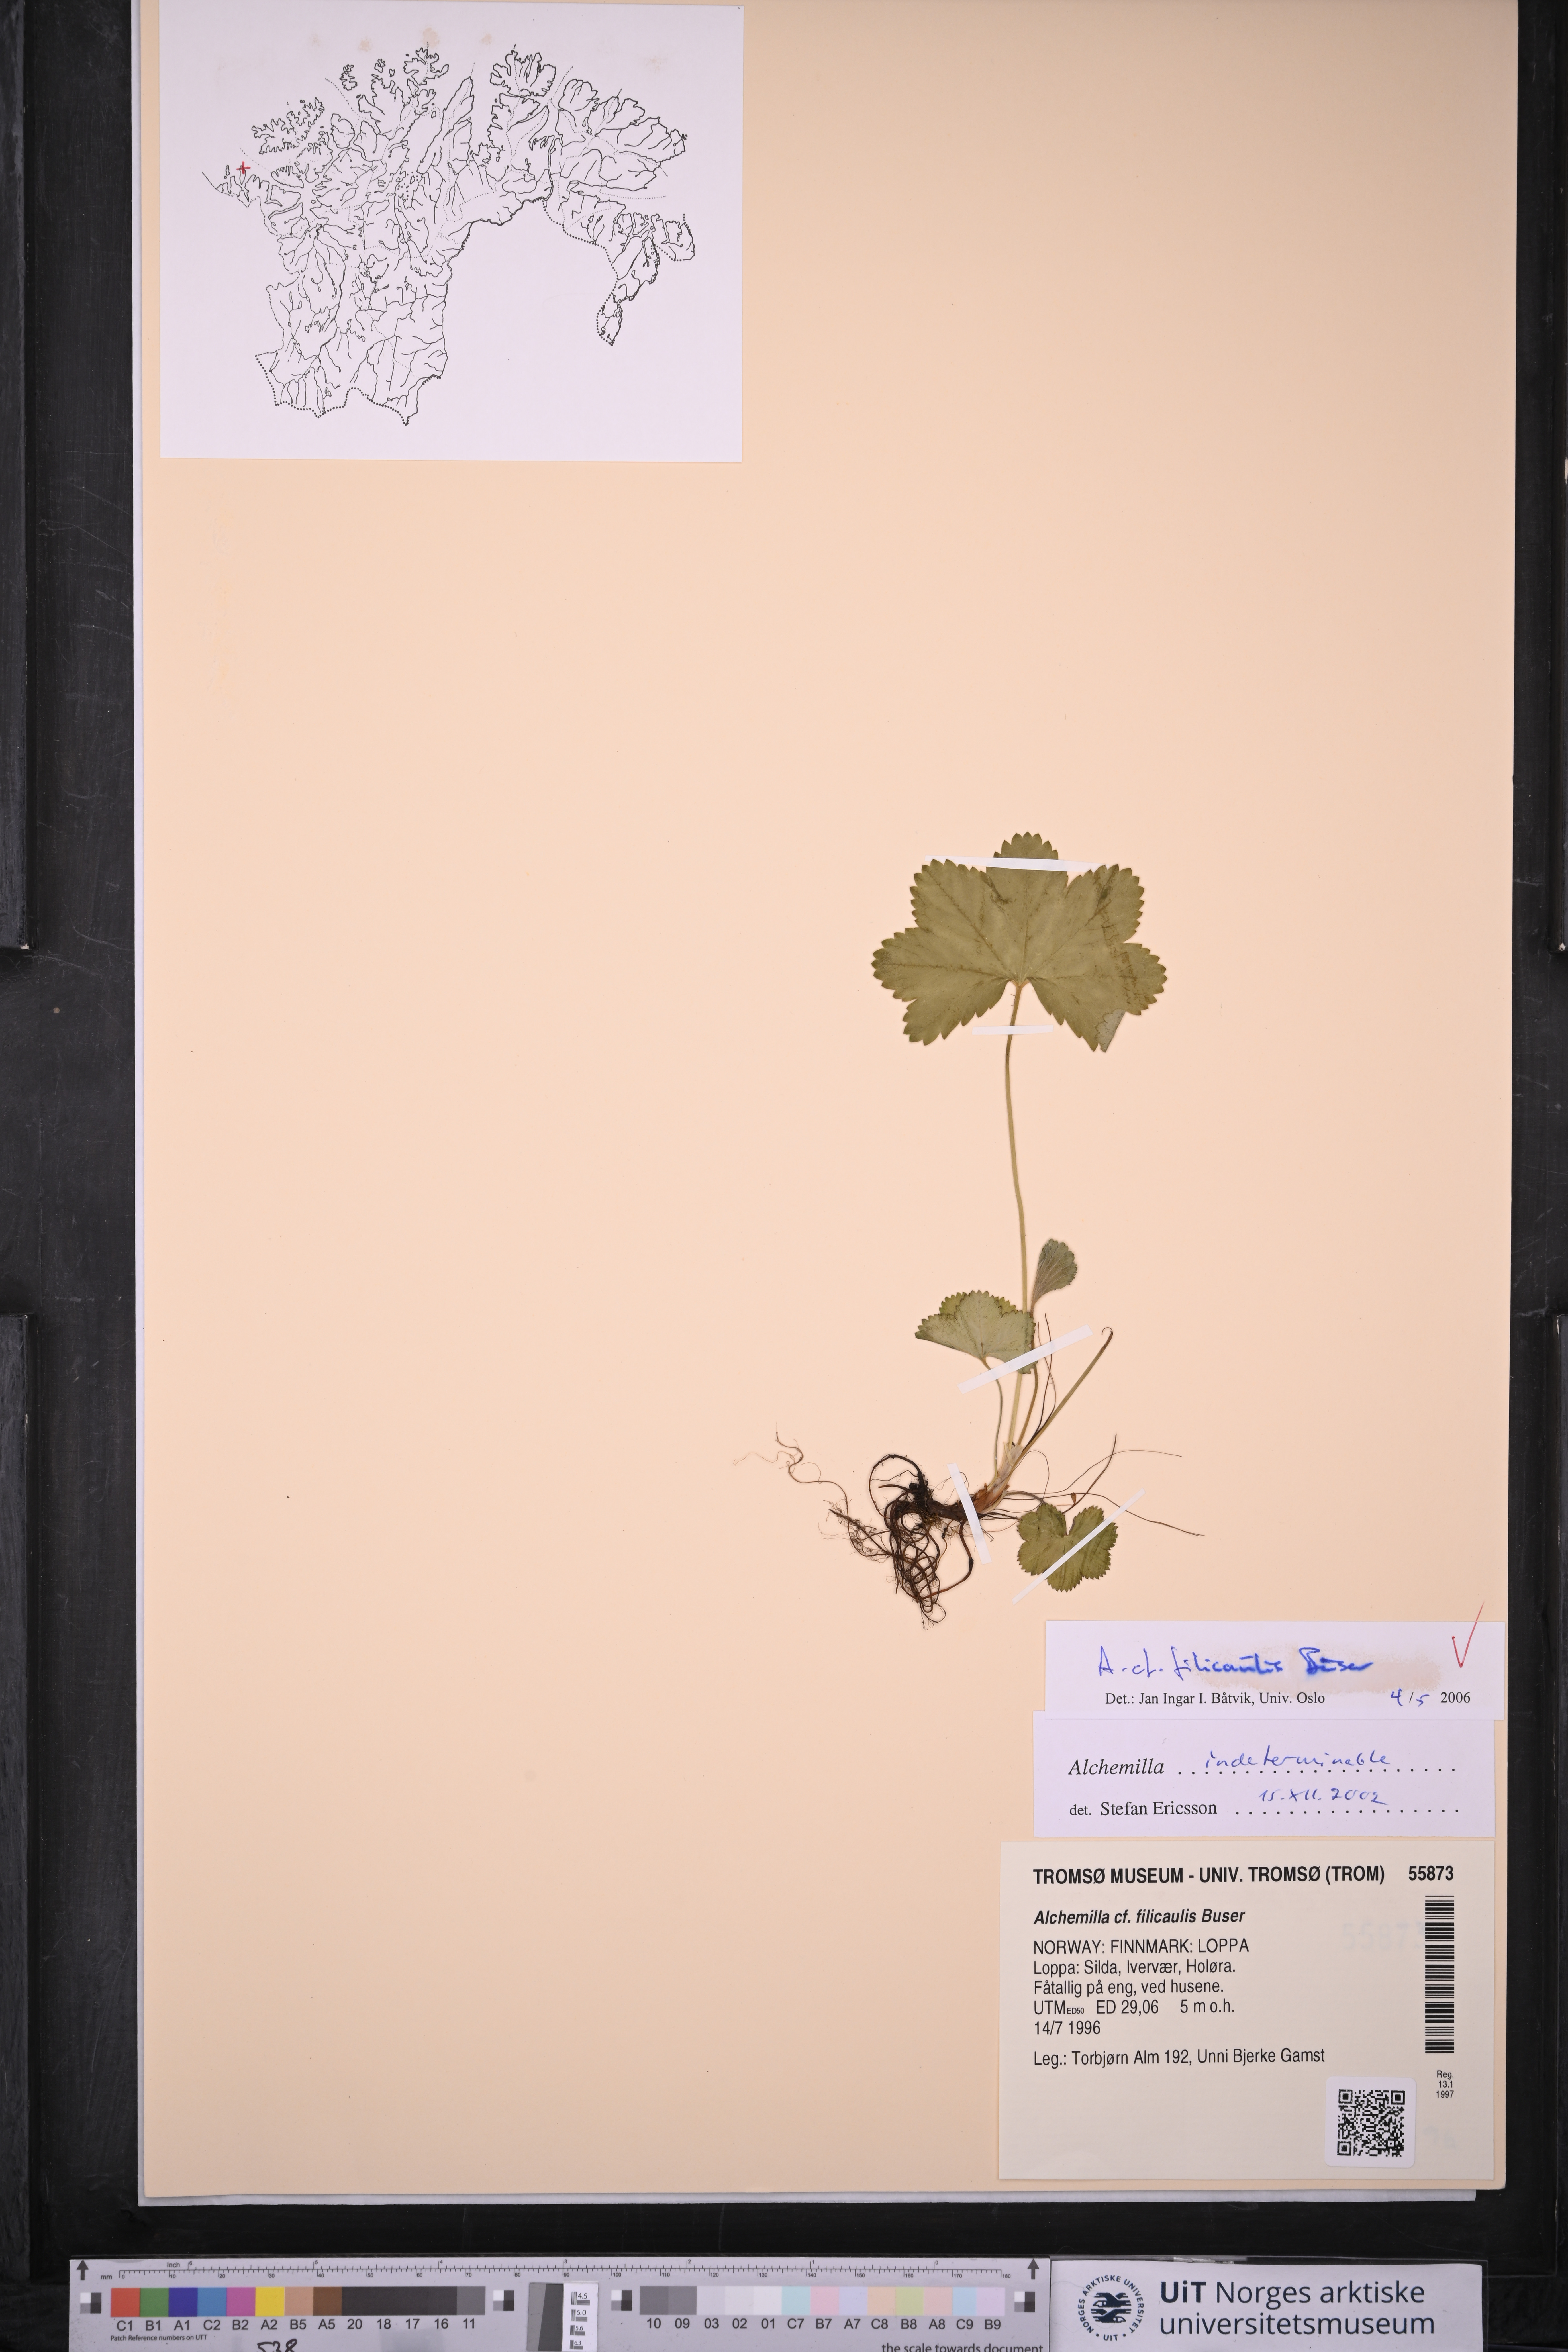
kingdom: Plantae
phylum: Tracheophyta
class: Magnoliopsida
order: Rosales
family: Rosaceae
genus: Alchemilla
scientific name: Alchemilla filicaulis
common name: Hairy lady's-mantle
